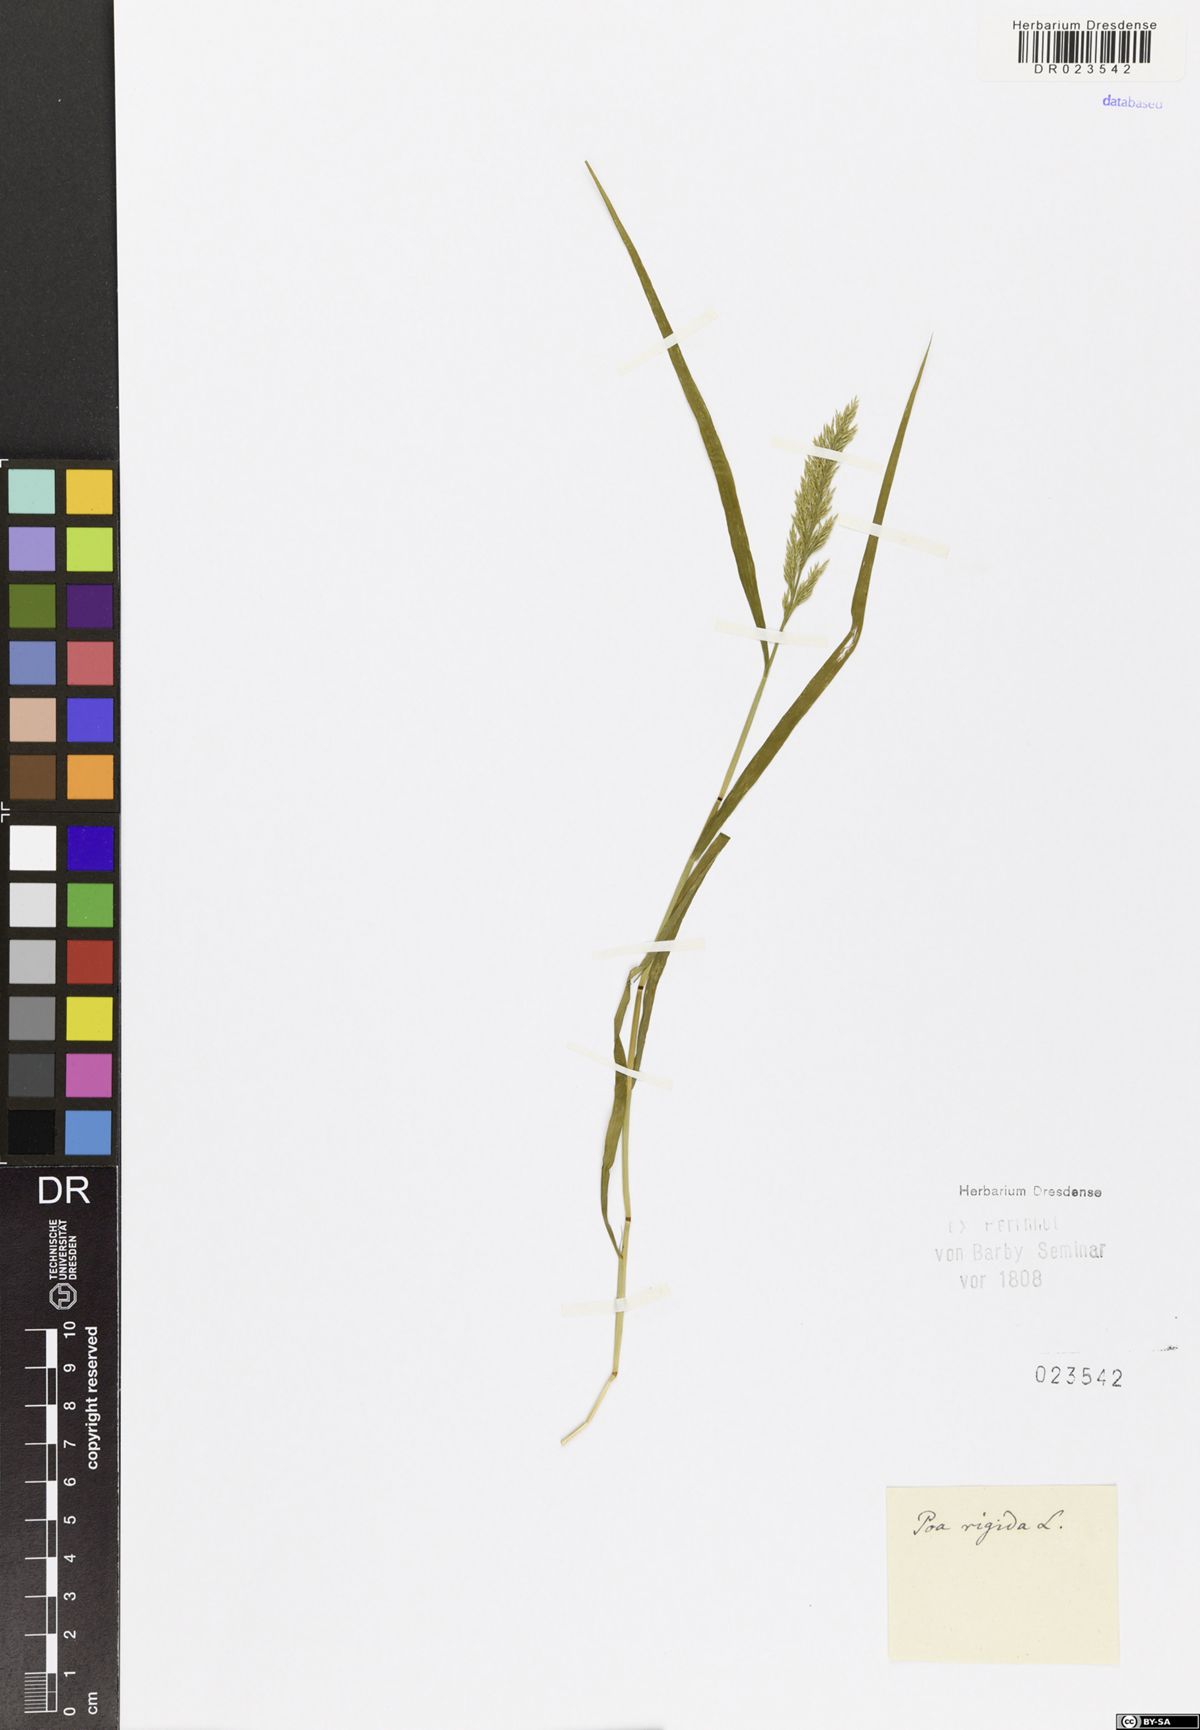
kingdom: Plantae
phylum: Tracheophyta
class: Liliopsida
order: Poales
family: Poaceae
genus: Catapodium
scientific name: Catapodium rigidum
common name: Fern-grass
